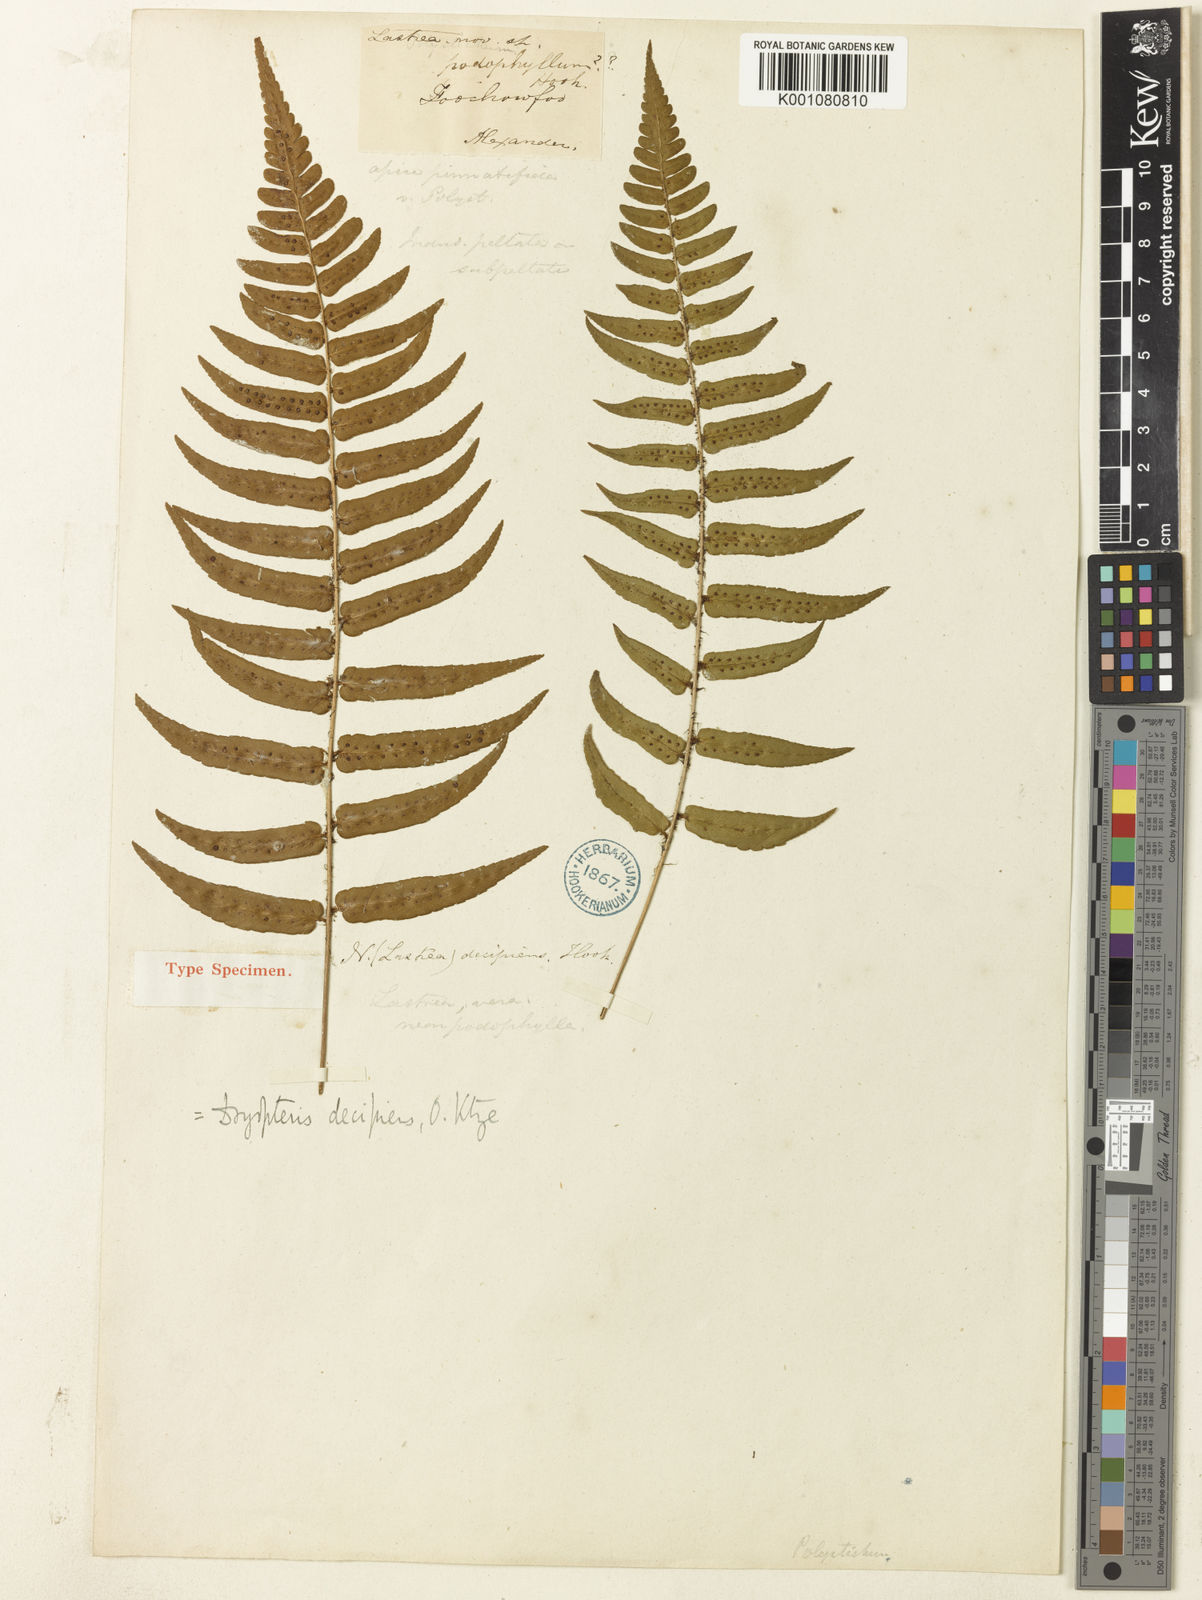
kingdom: Plantae
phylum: Tracheophyta
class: Polypodiopsida
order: Polypodiales
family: Dryopteridaceae
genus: Dryopteris
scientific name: Dryopteris decipiens
